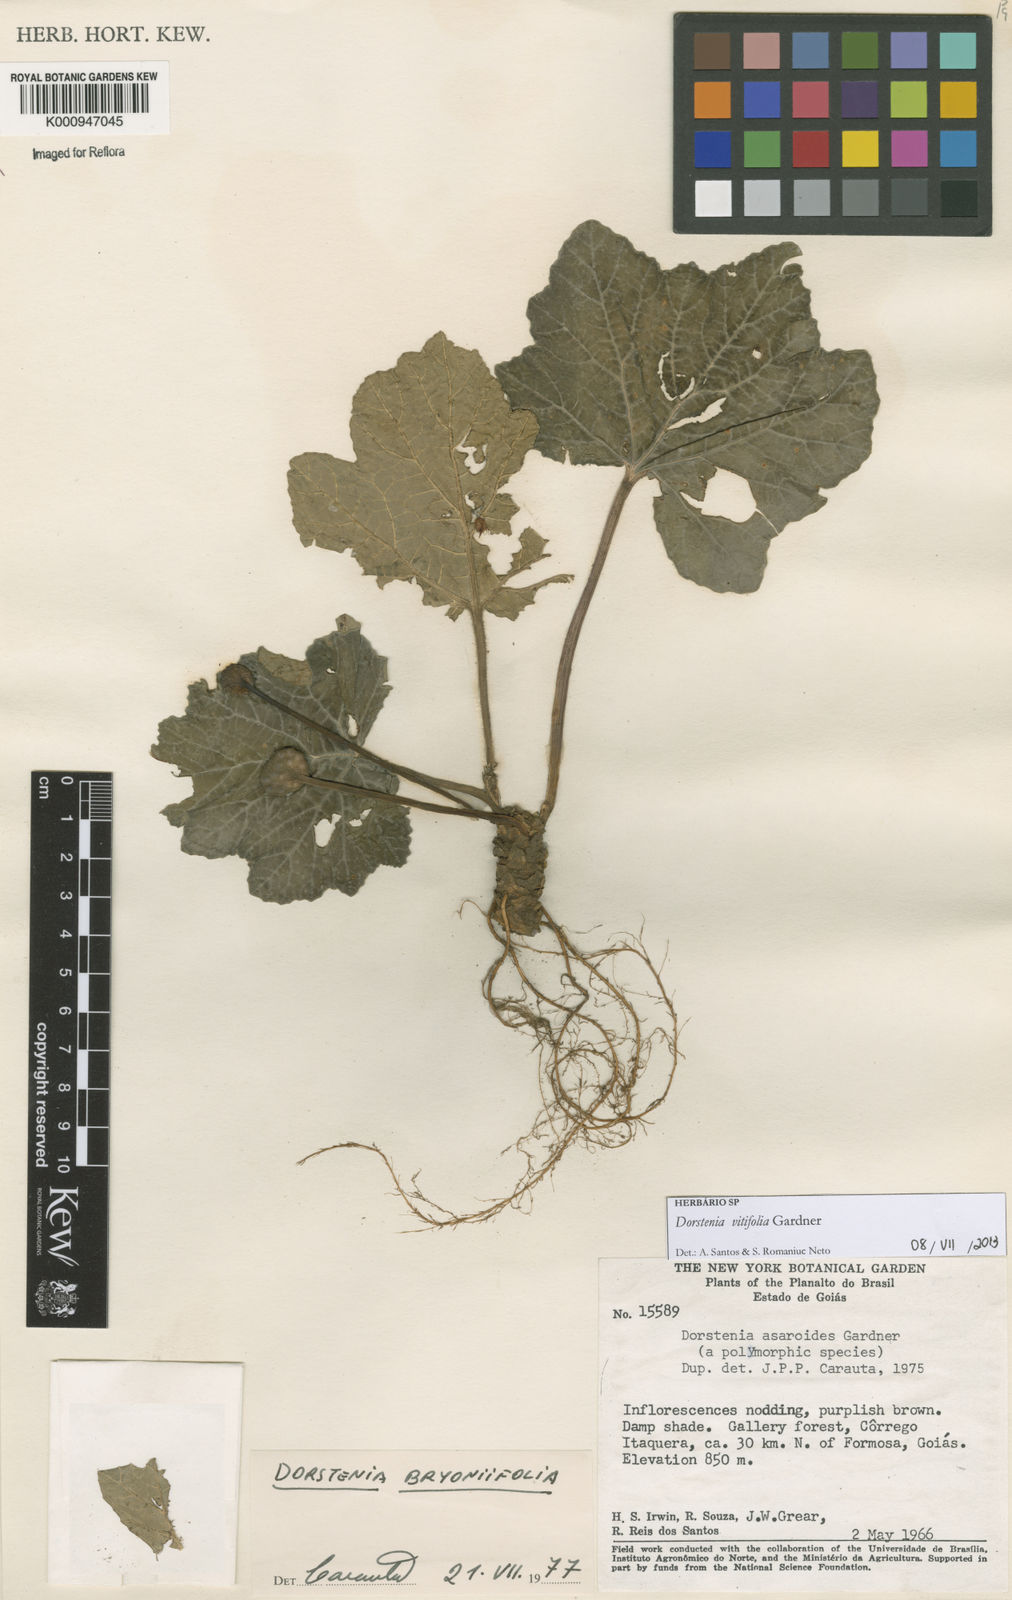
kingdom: Plantae
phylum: Tracheophyta
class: Magnoliopsida
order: Rosales
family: Moraceae
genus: Dorstenia
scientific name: Dorstenia cayapia
